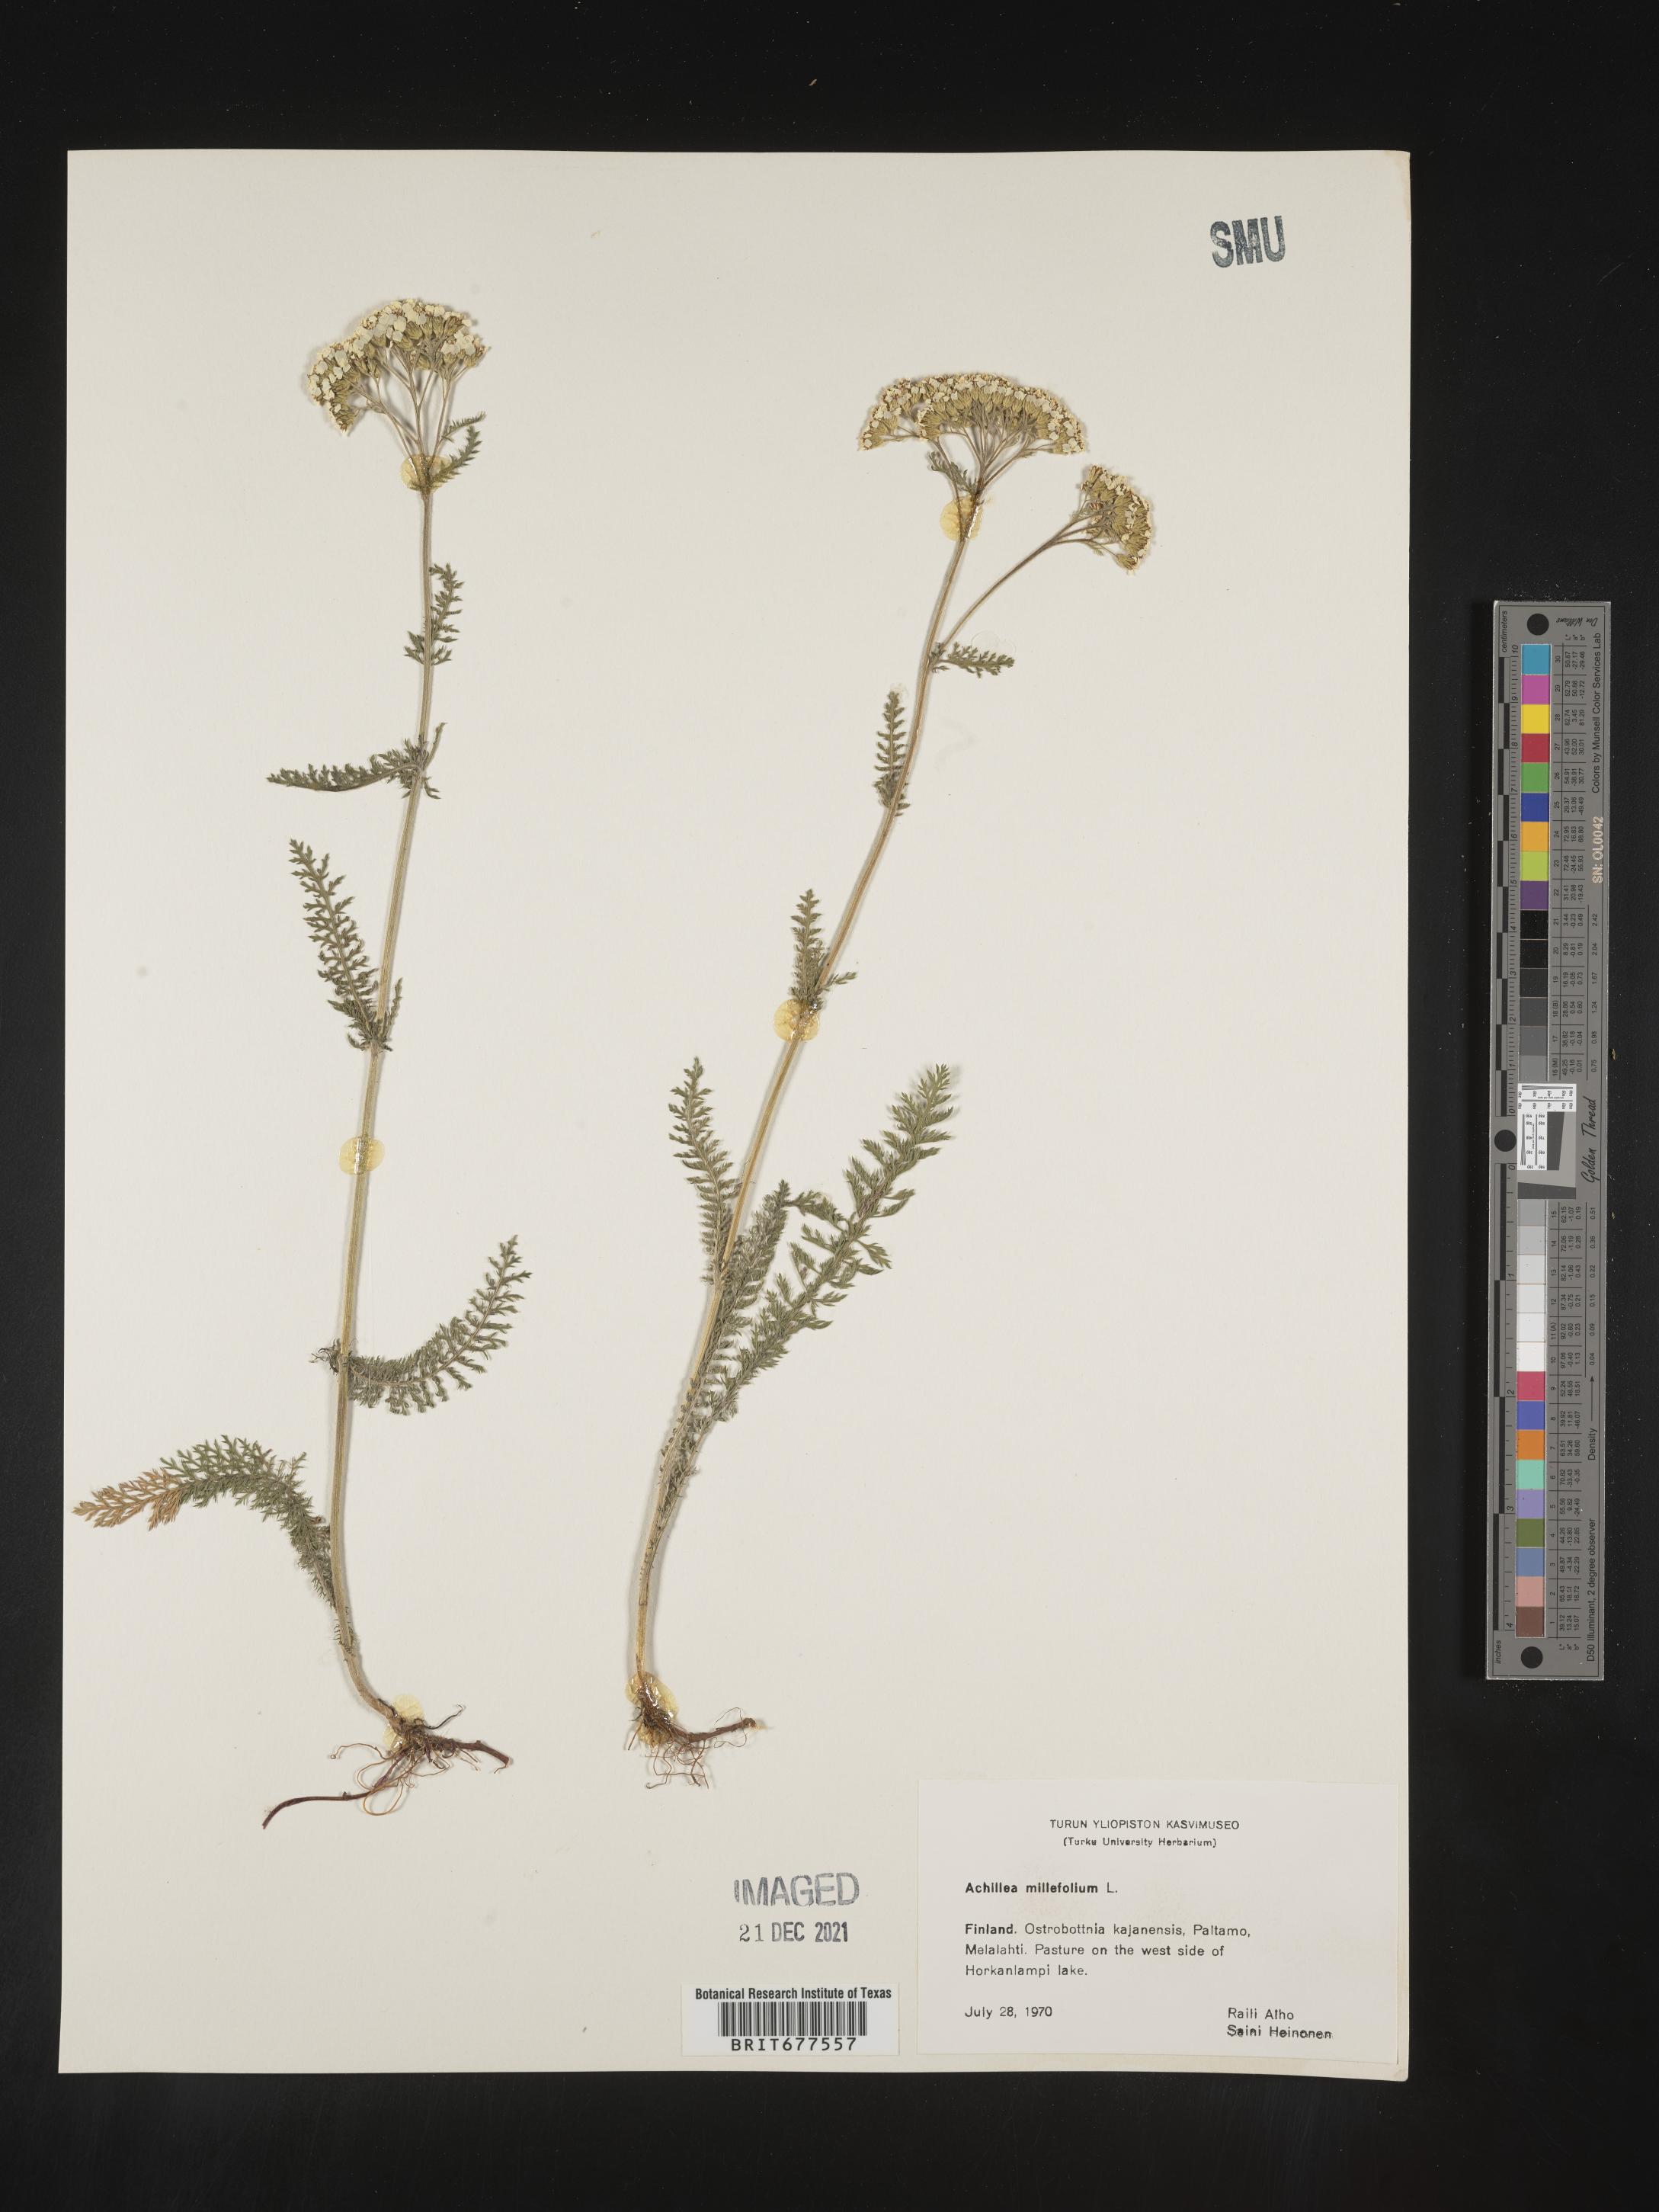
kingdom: Plantae
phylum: Tracheophyta
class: Magnoliopsida
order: Asterales
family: Asteraceae
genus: Achillea
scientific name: Achillea millefolium
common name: Yarrow
